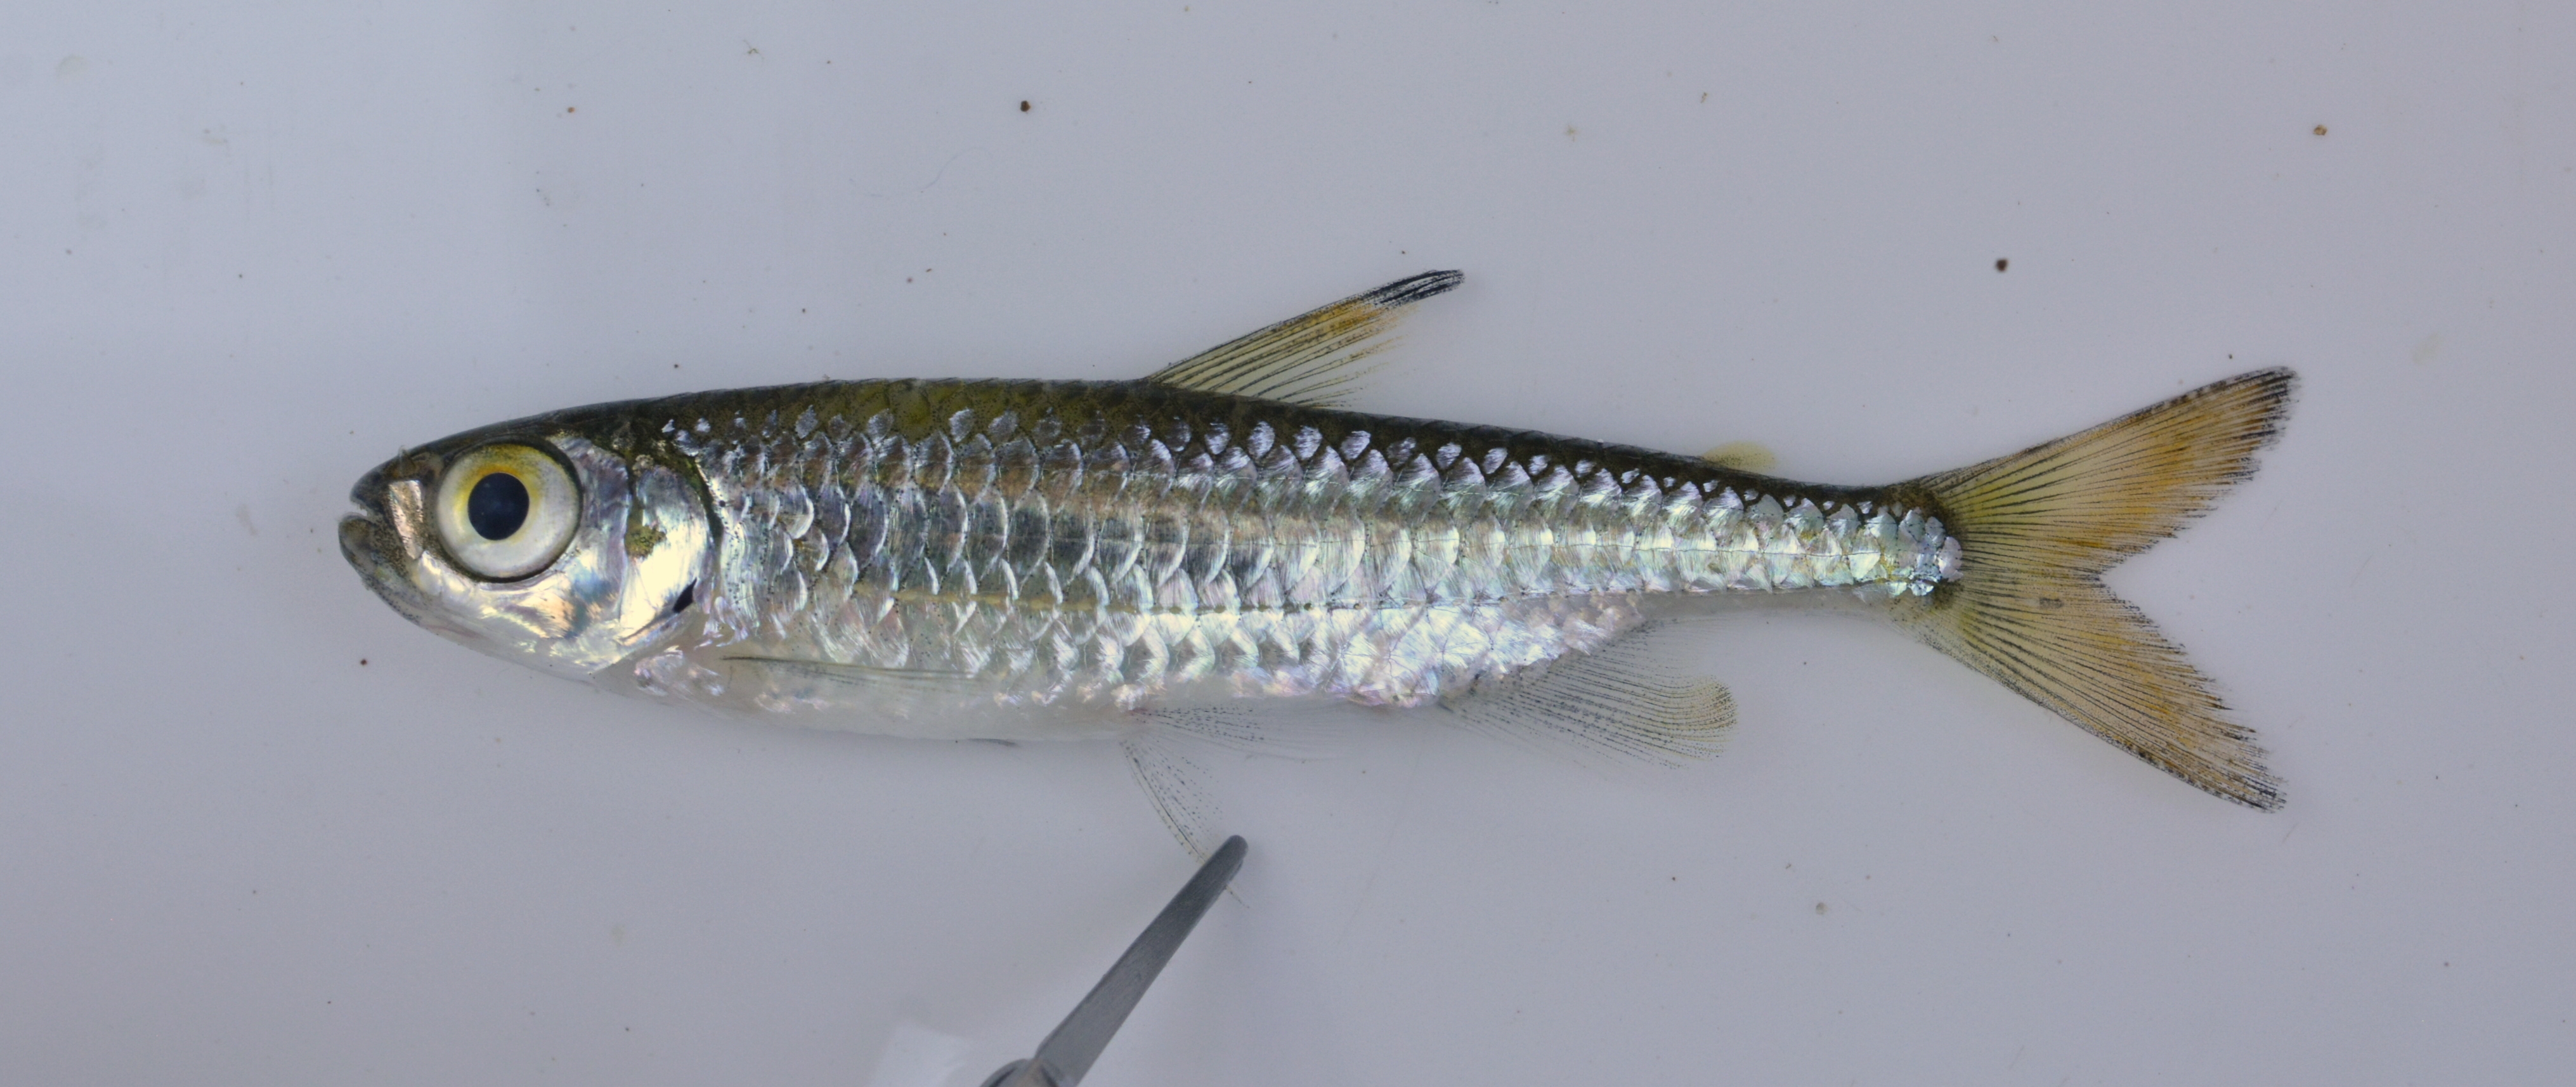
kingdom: Animalia
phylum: Chordata
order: Characiformes
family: Alestidae
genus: Micralestes
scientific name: Micralestes acutidens
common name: Silver robber
